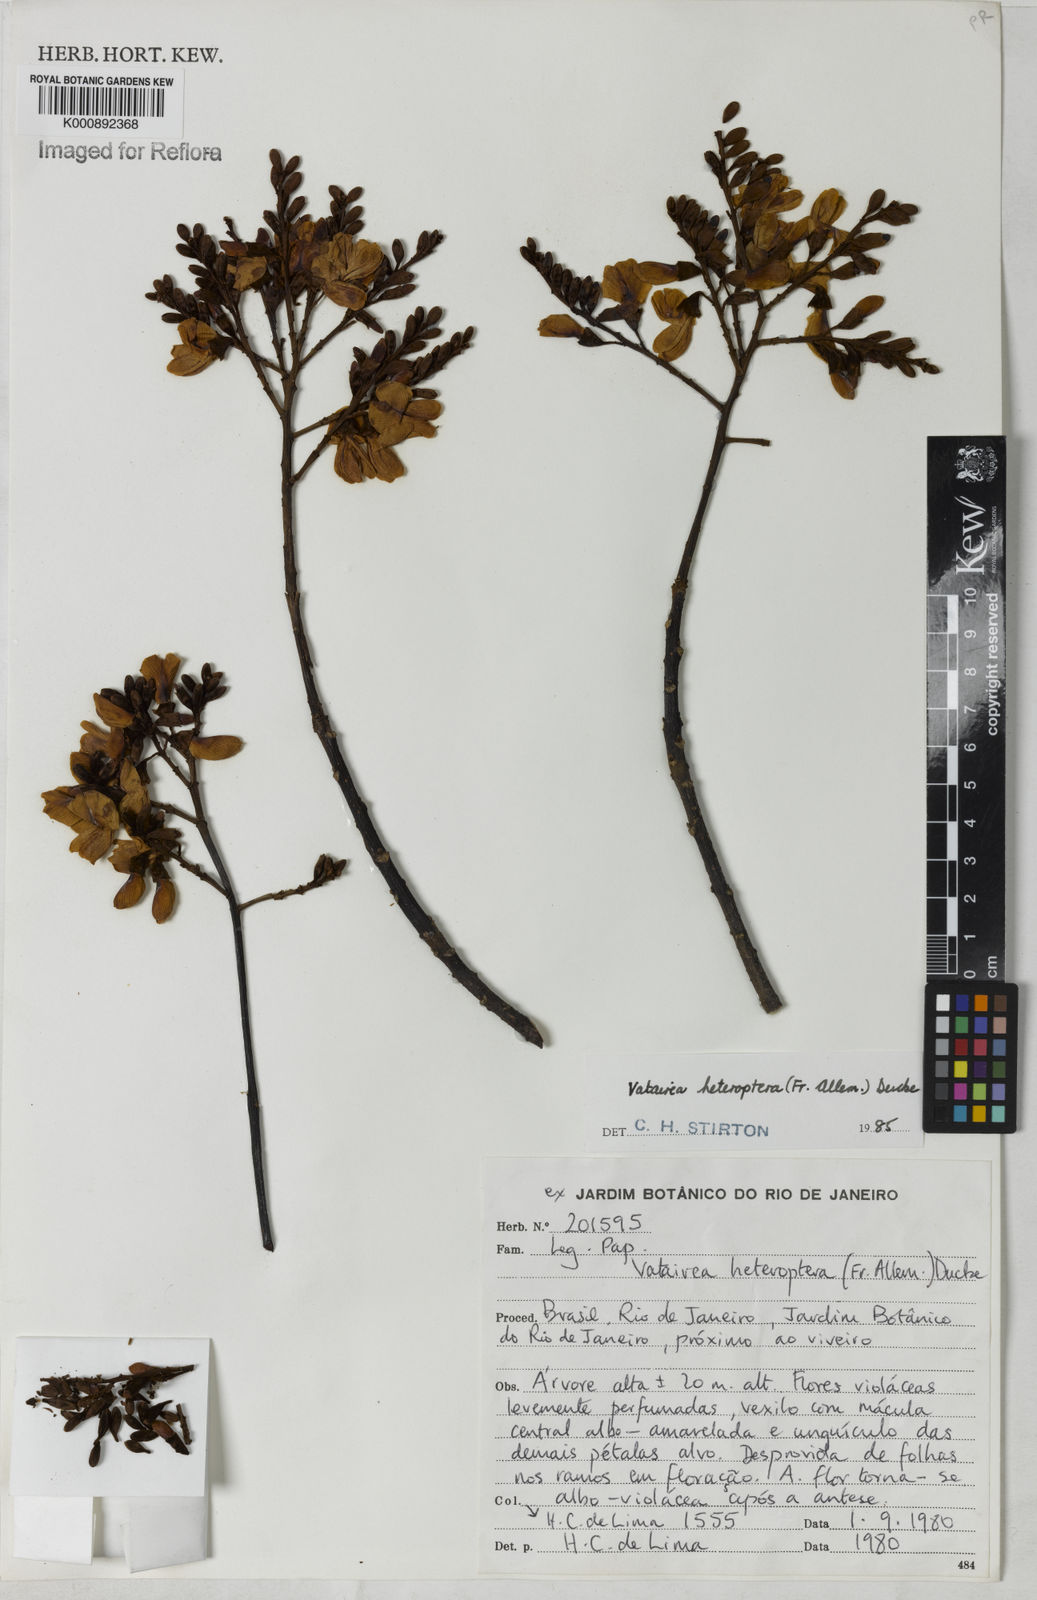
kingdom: Plantae
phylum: Tracheophyta
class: Magnoliopsida
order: Fabales
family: Fabaceae
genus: Vatairea
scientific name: Vatairea
